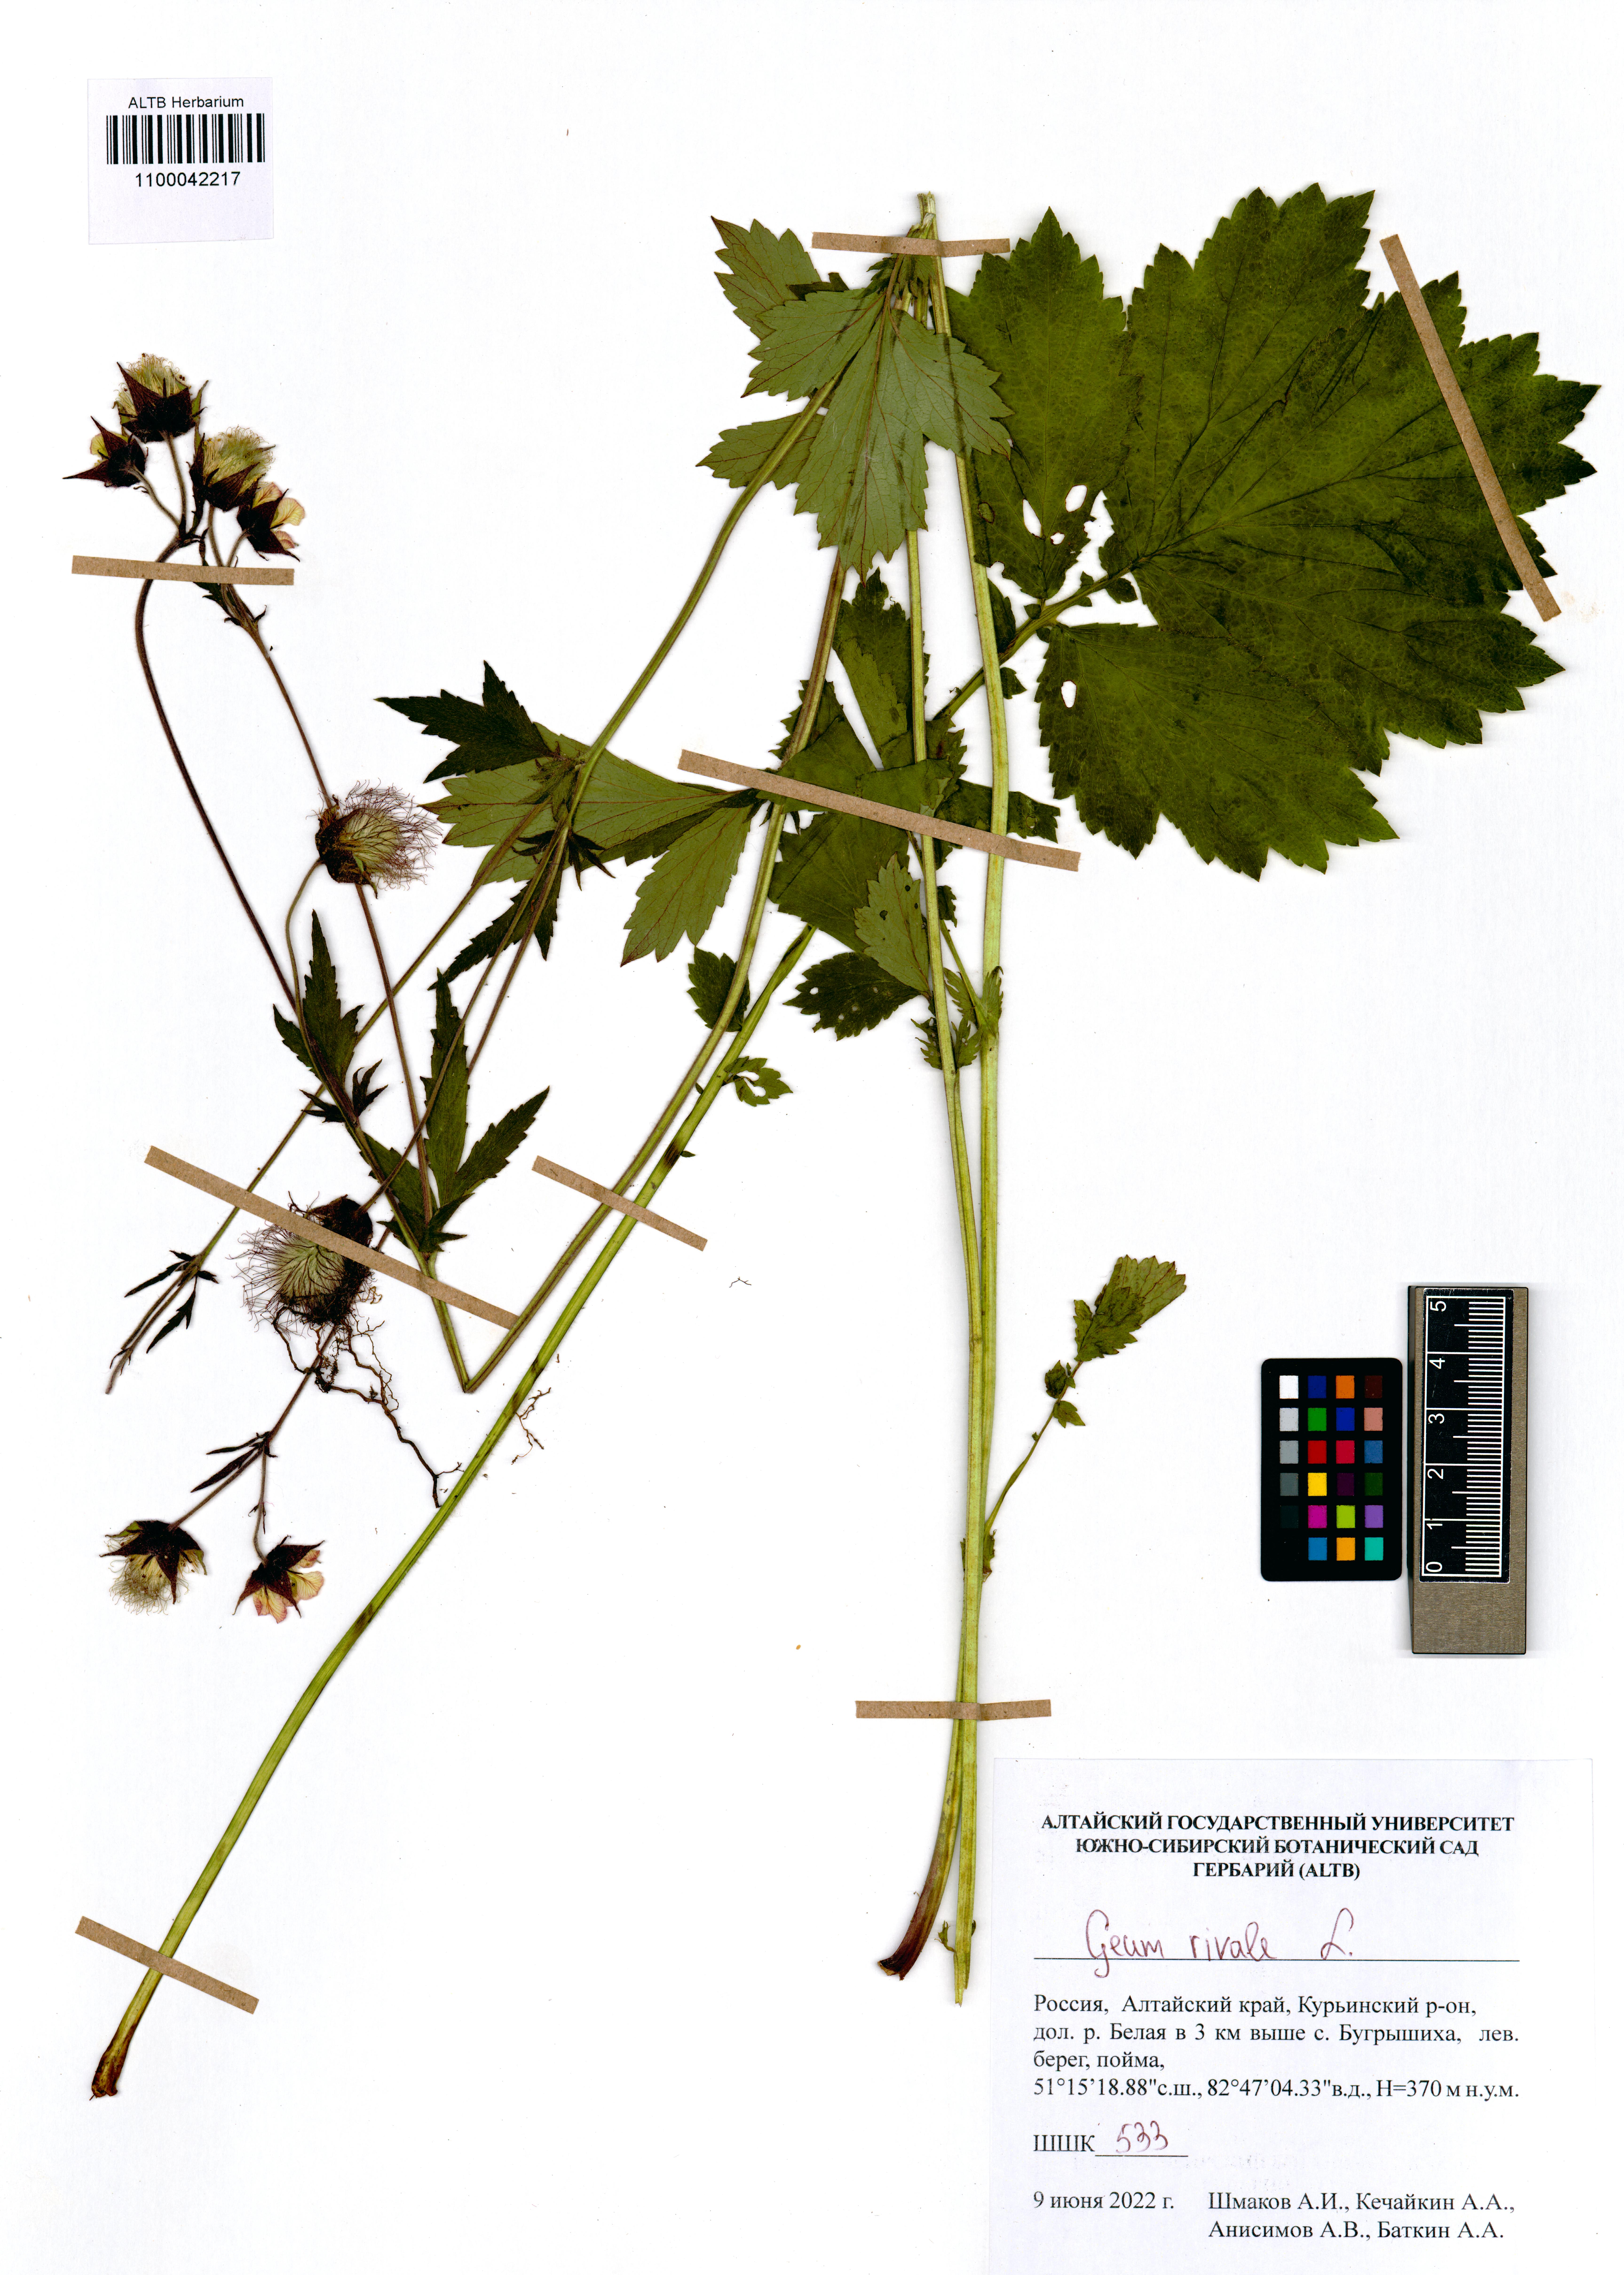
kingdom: Plantae
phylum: Tracheophyta
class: Magnoliopsida
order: Rosales
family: Rosaceae
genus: Geum
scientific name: Geum rivale
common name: Water avens
